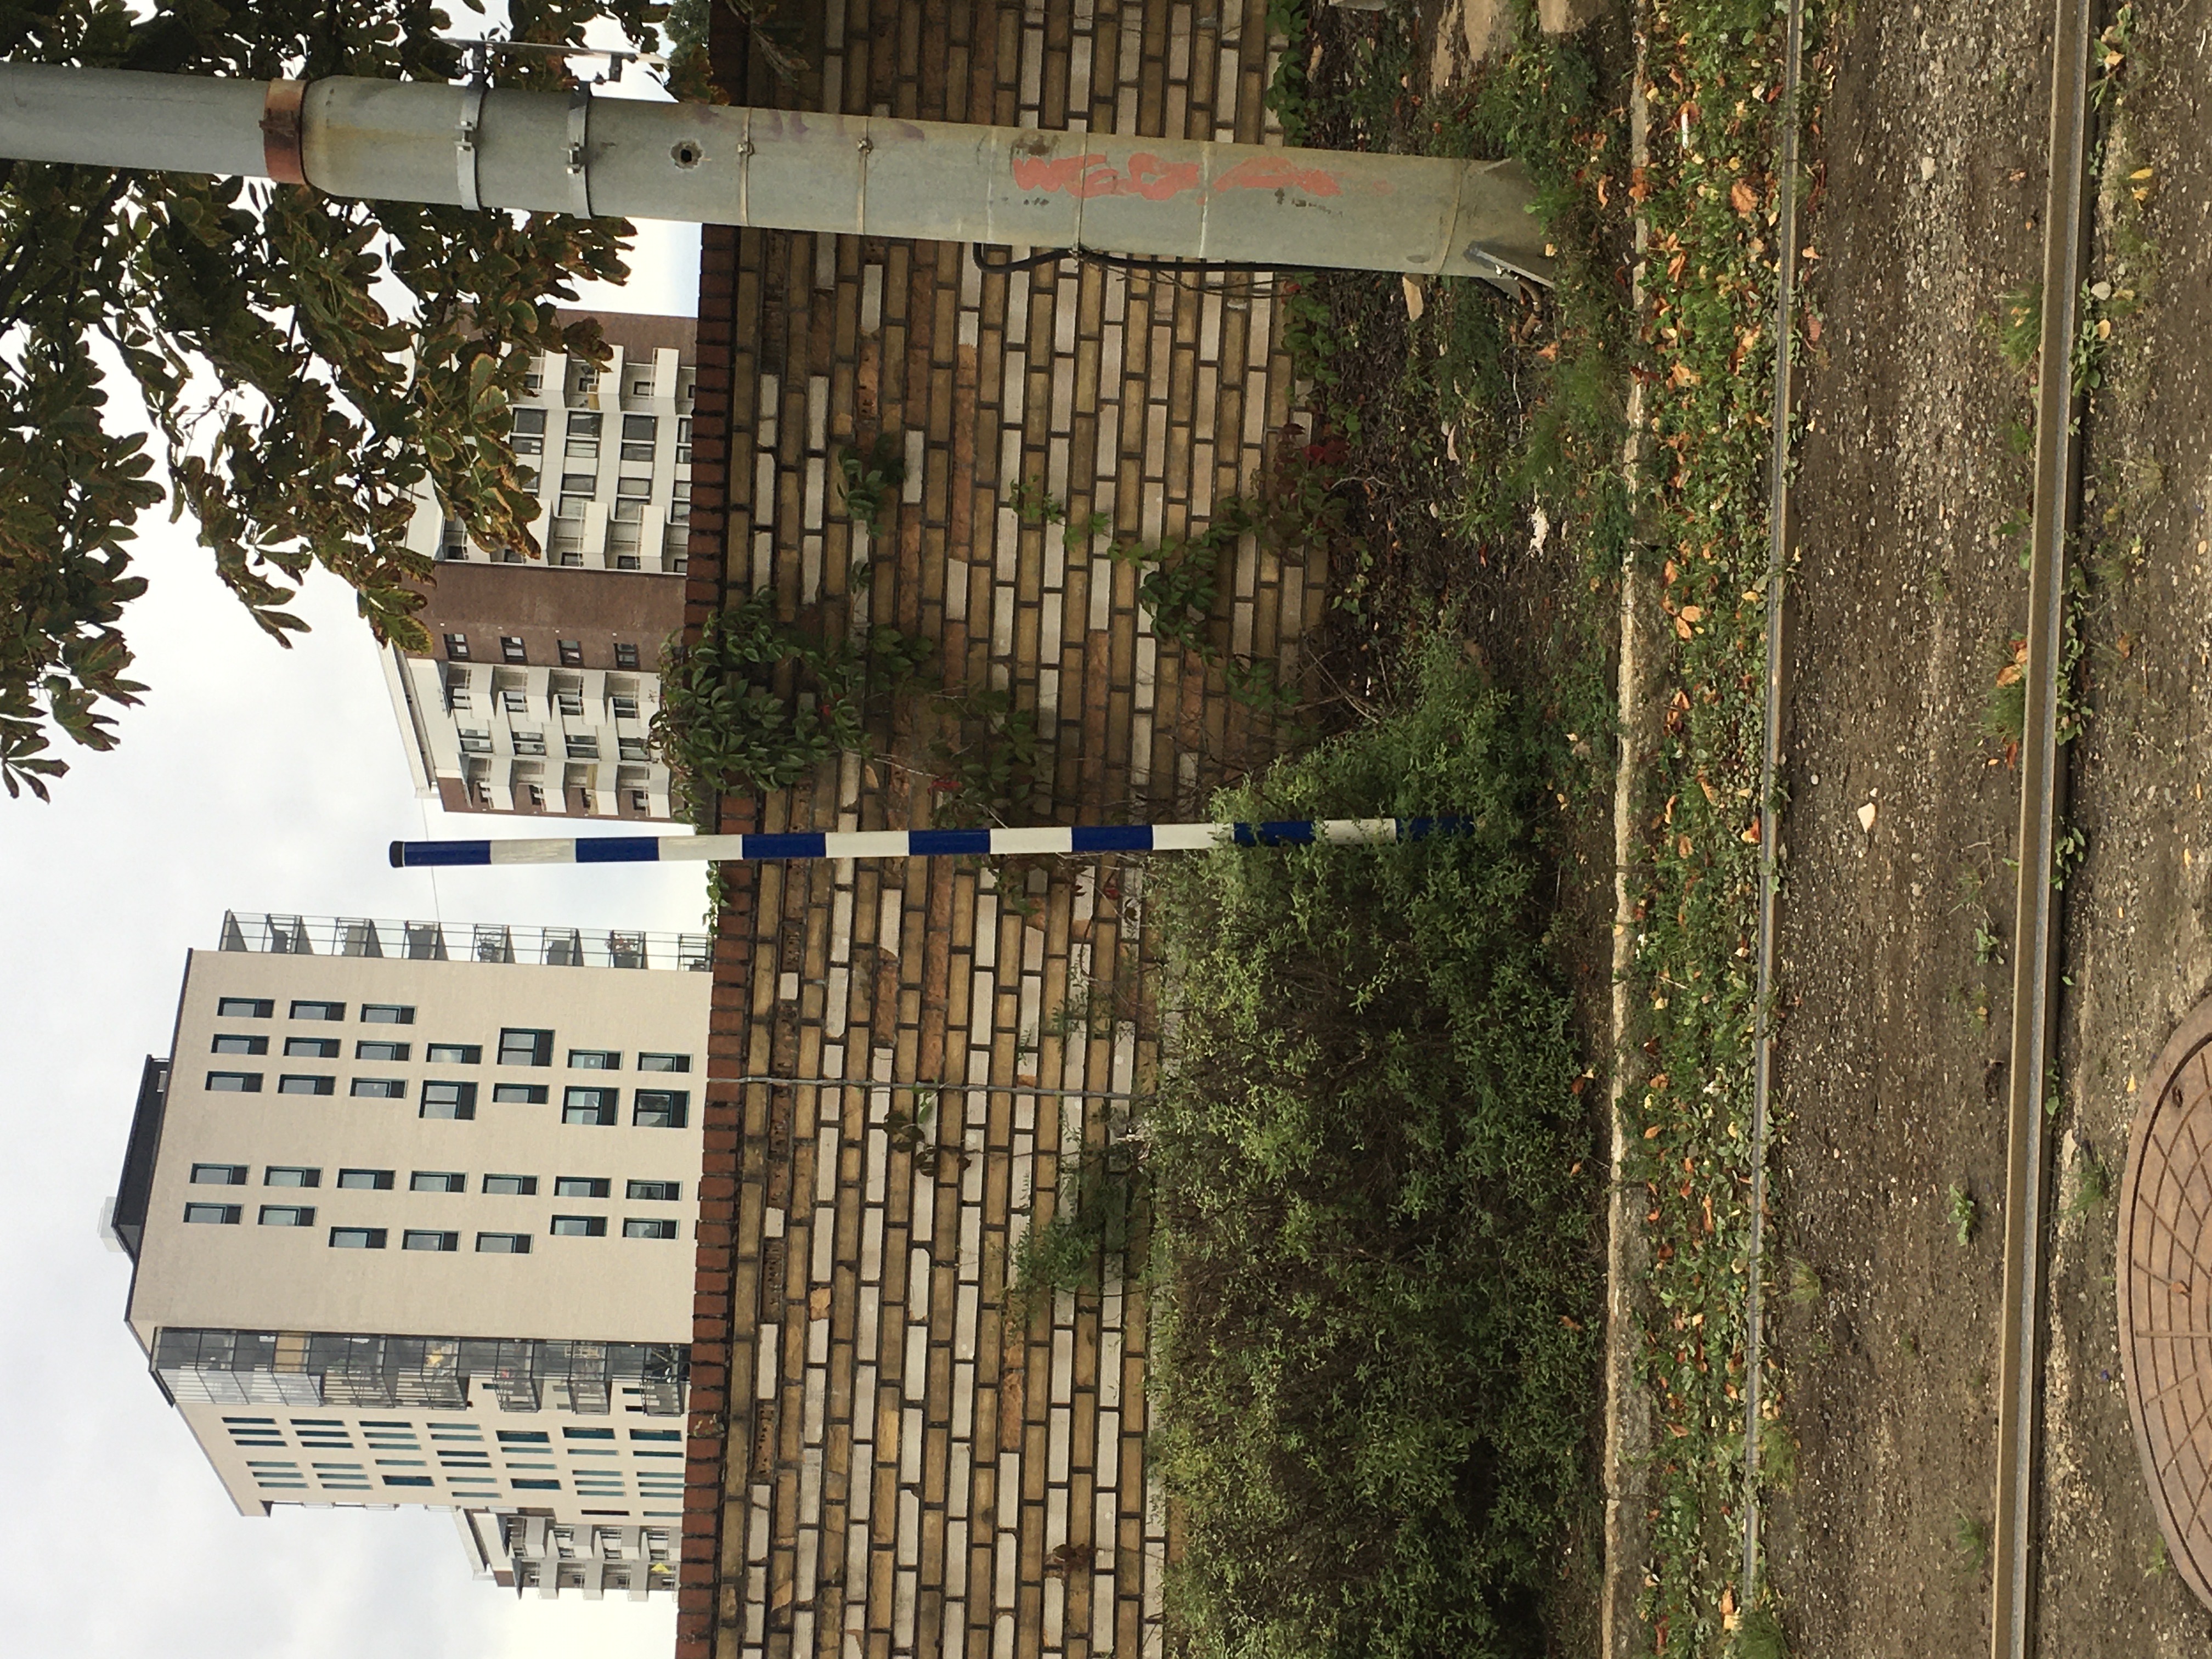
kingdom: Plantae
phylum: Tracheophyta
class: Magnoliopsida
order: Vitales
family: Vitaceae
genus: Parthenocissus
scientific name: Parthenocissus quinquefolia
